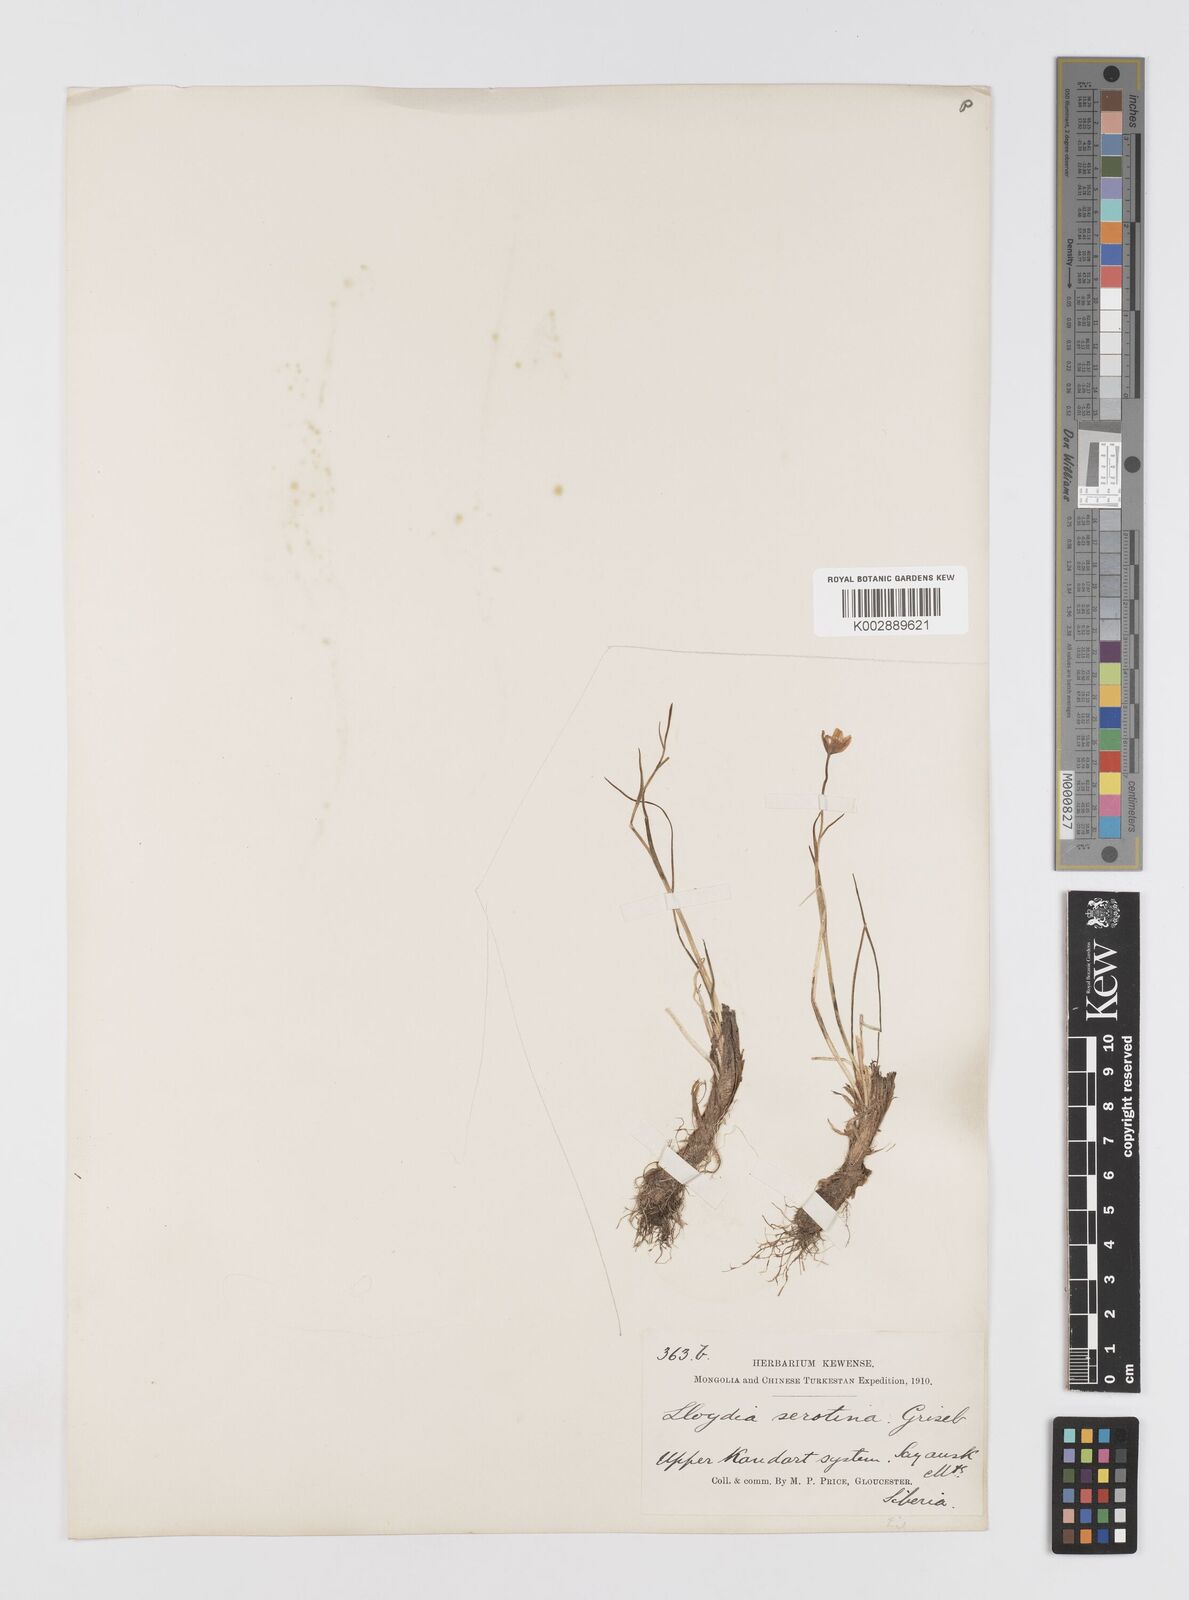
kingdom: Plantae
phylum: Tracheophyta
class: Liliopsida
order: Liliales
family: Liliaceae
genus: Gagea
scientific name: Gagea serotina
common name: Snowdon lily
